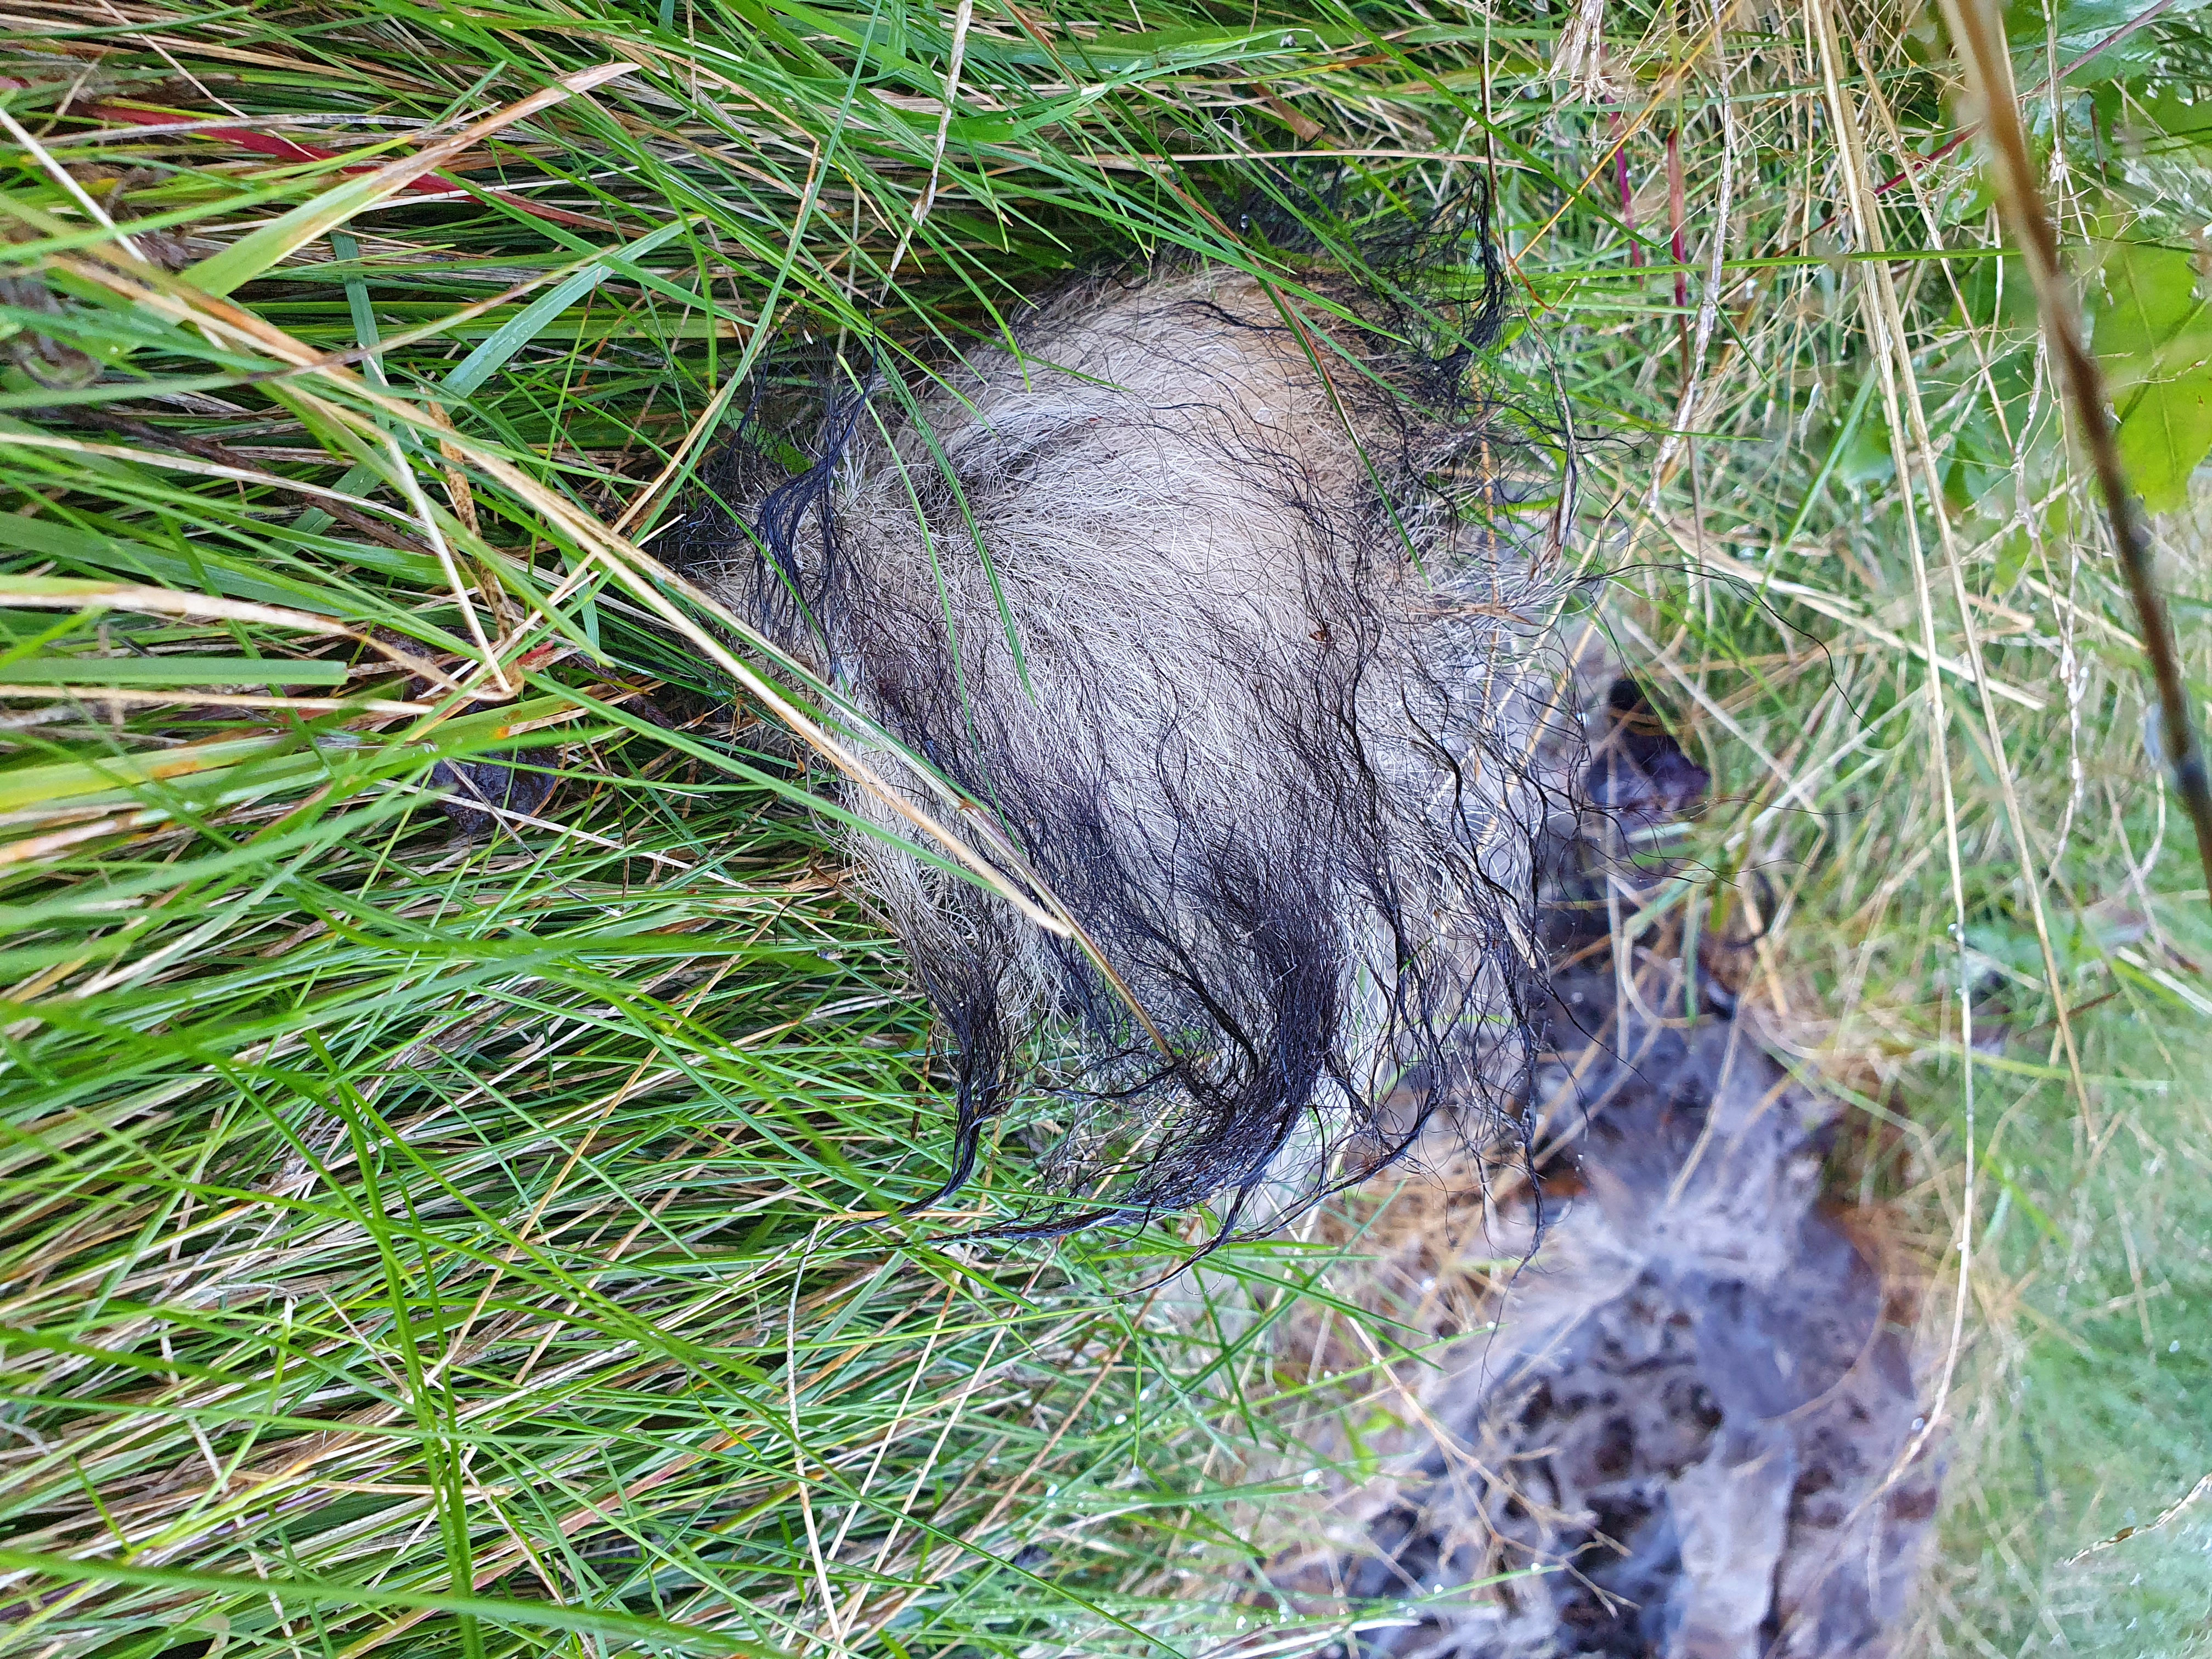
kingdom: Animalia
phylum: Chordata
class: Mammalia
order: Carnivora
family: Canidae
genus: Nyctereutes
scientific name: Nyctereutes procyonoides
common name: Mårhund
